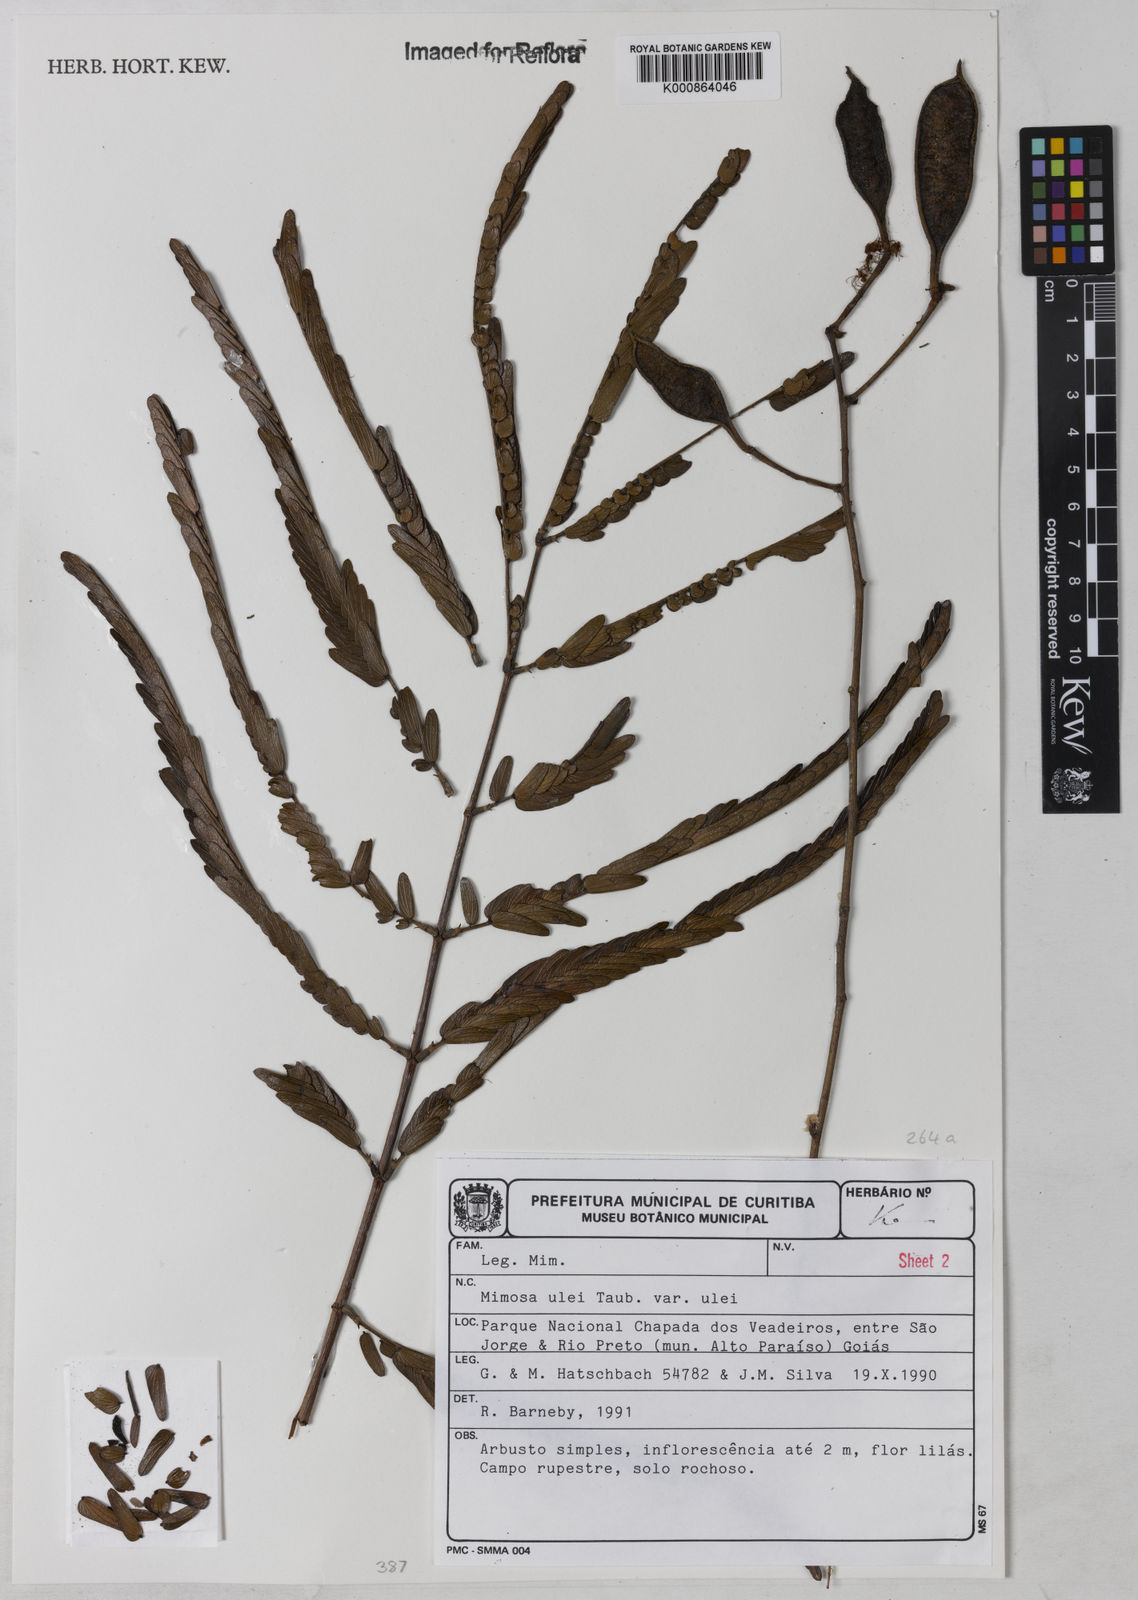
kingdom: Plantae
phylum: Tracheophyta
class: Magnoliopsida
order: Fabales
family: Fabaceae
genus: Mimosa
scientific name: Mimosa ulei
